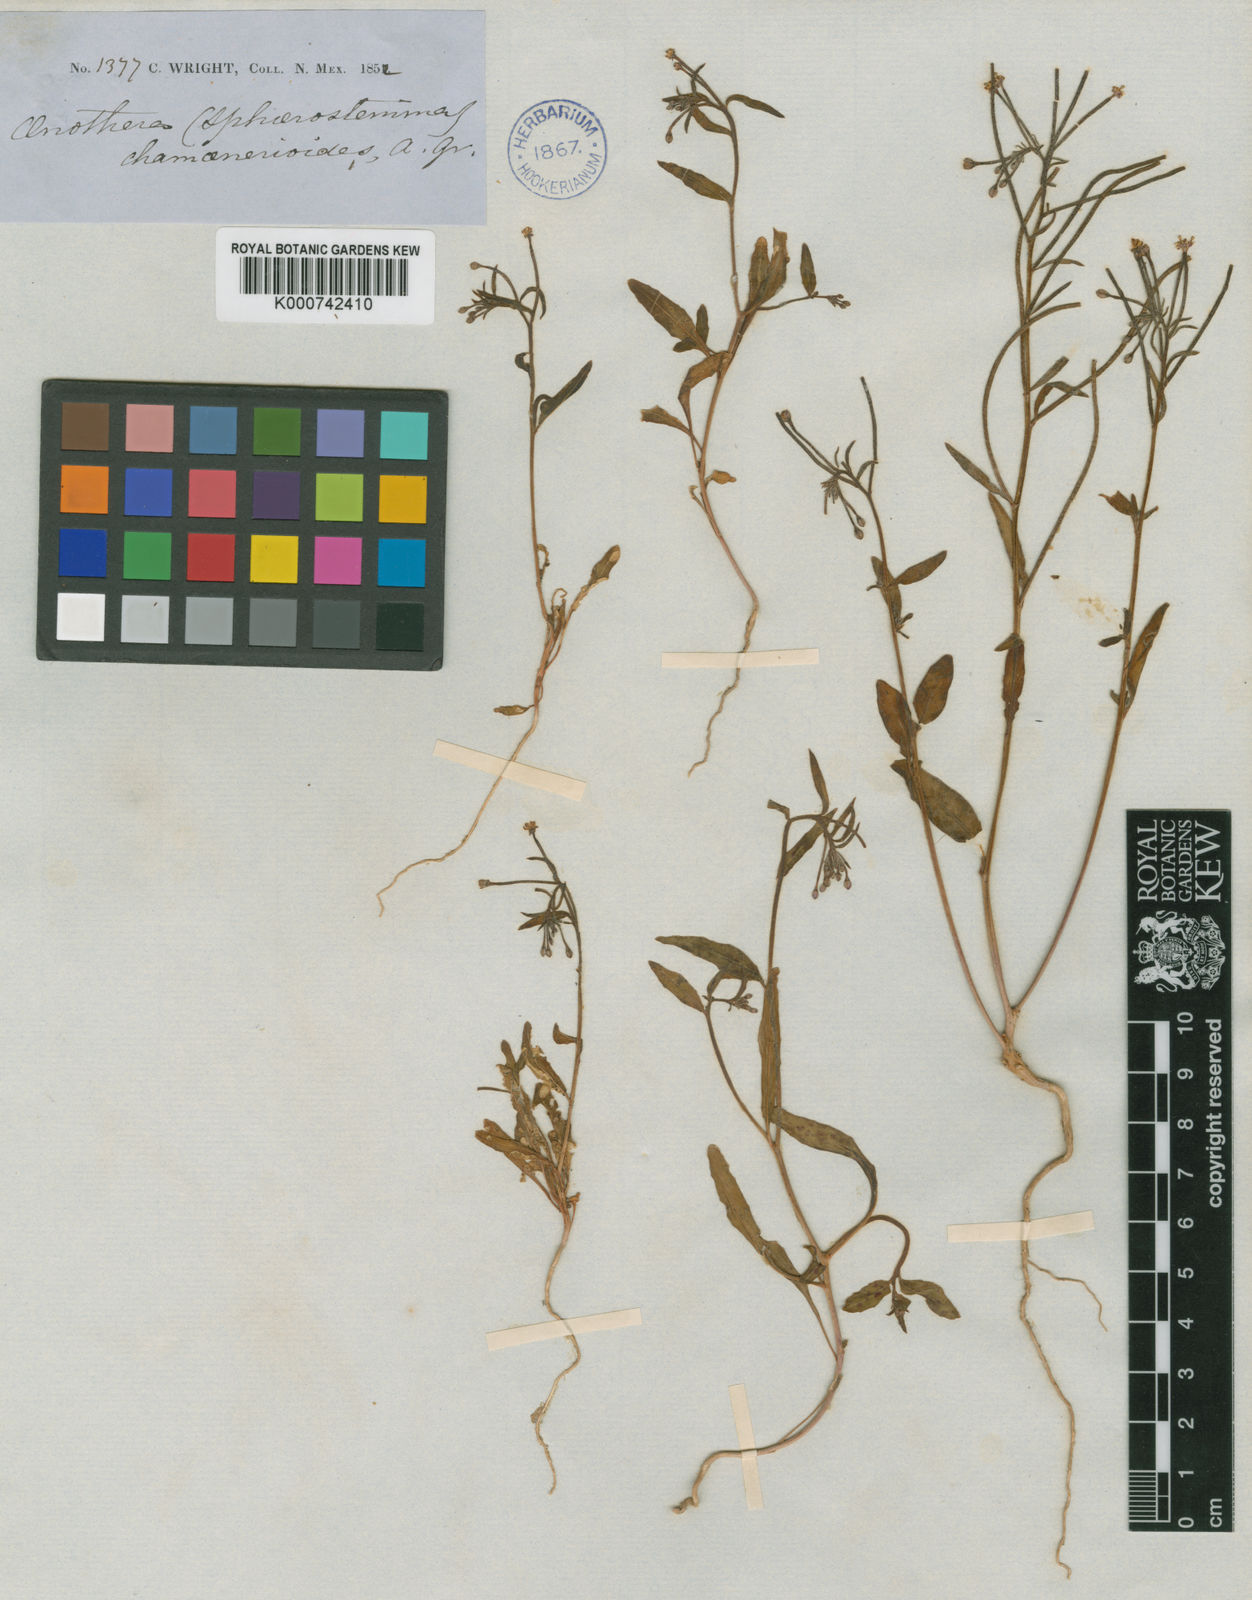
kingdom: Plantae
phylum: Tracheophyta
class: Magnoliopsida
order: Myrtales
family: Onagraceae
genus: Eremothera
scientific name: Eremothera chamaenerioides
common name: Longcapsule suncup
